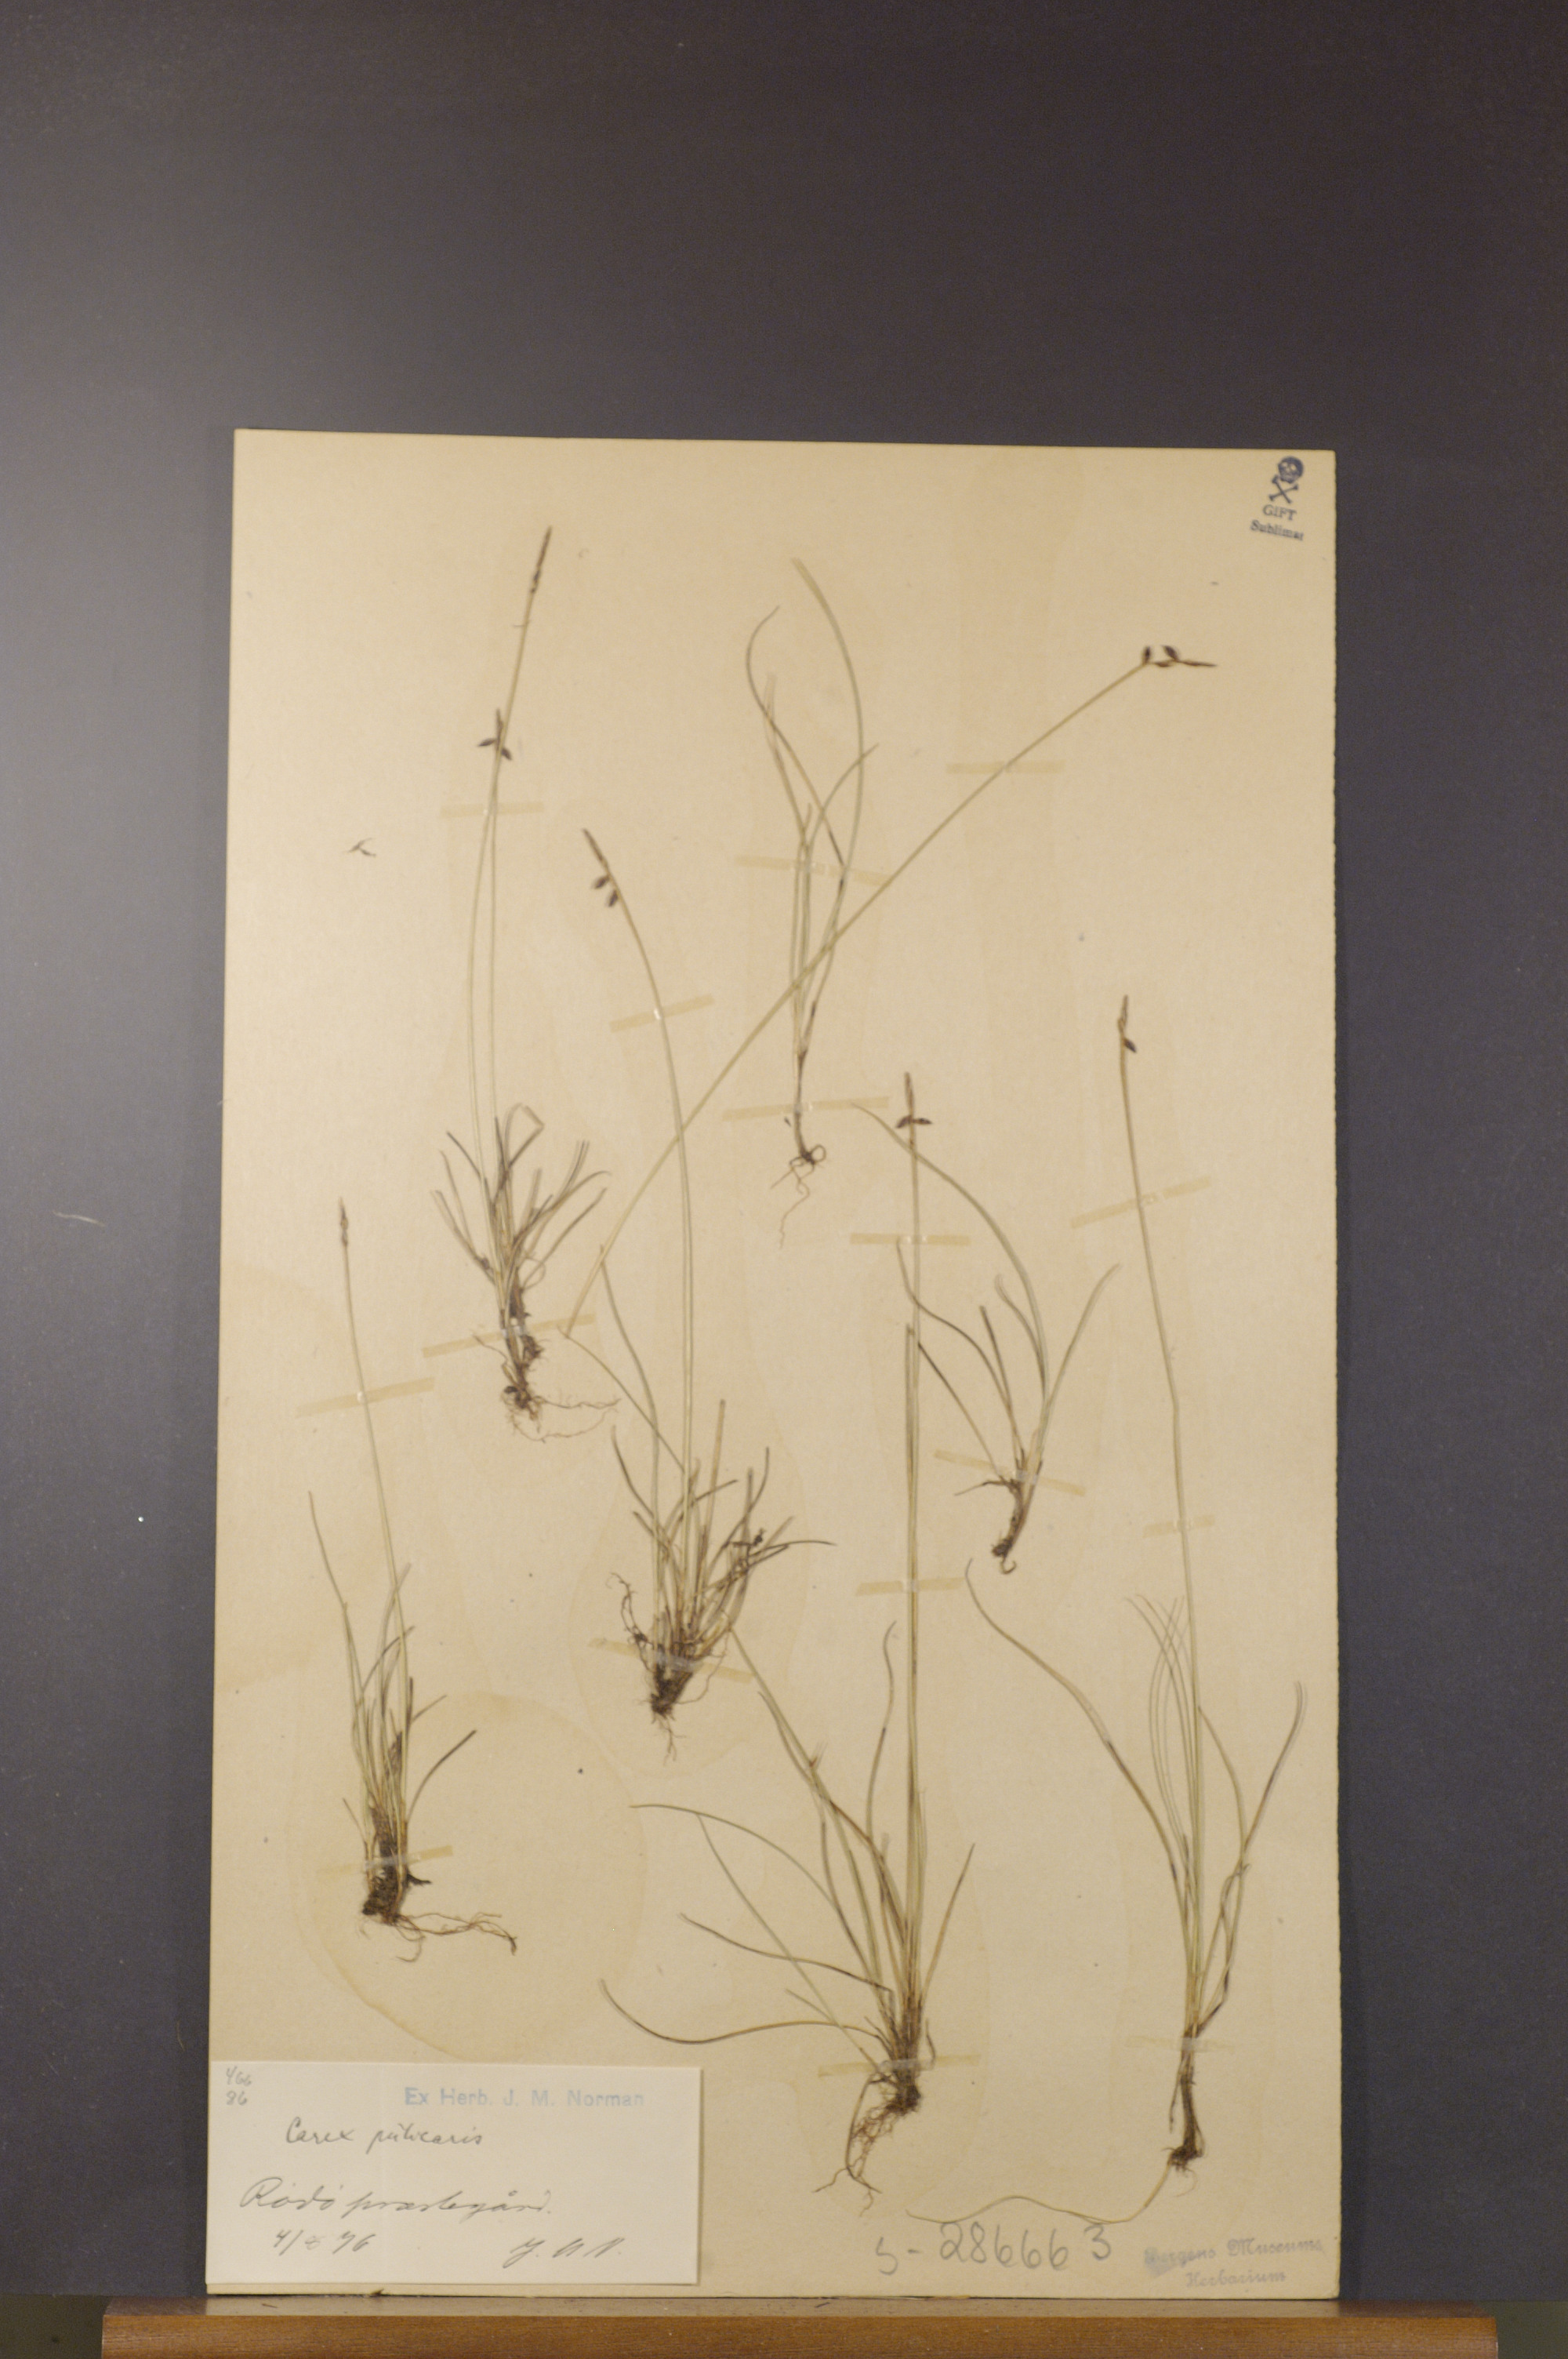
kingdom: Plantae
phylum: Tracheophyta
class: Liliopsida
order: Poales
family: Cyperaceae
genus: Carex
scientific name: Carex pulicaris
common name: Flea sedge
